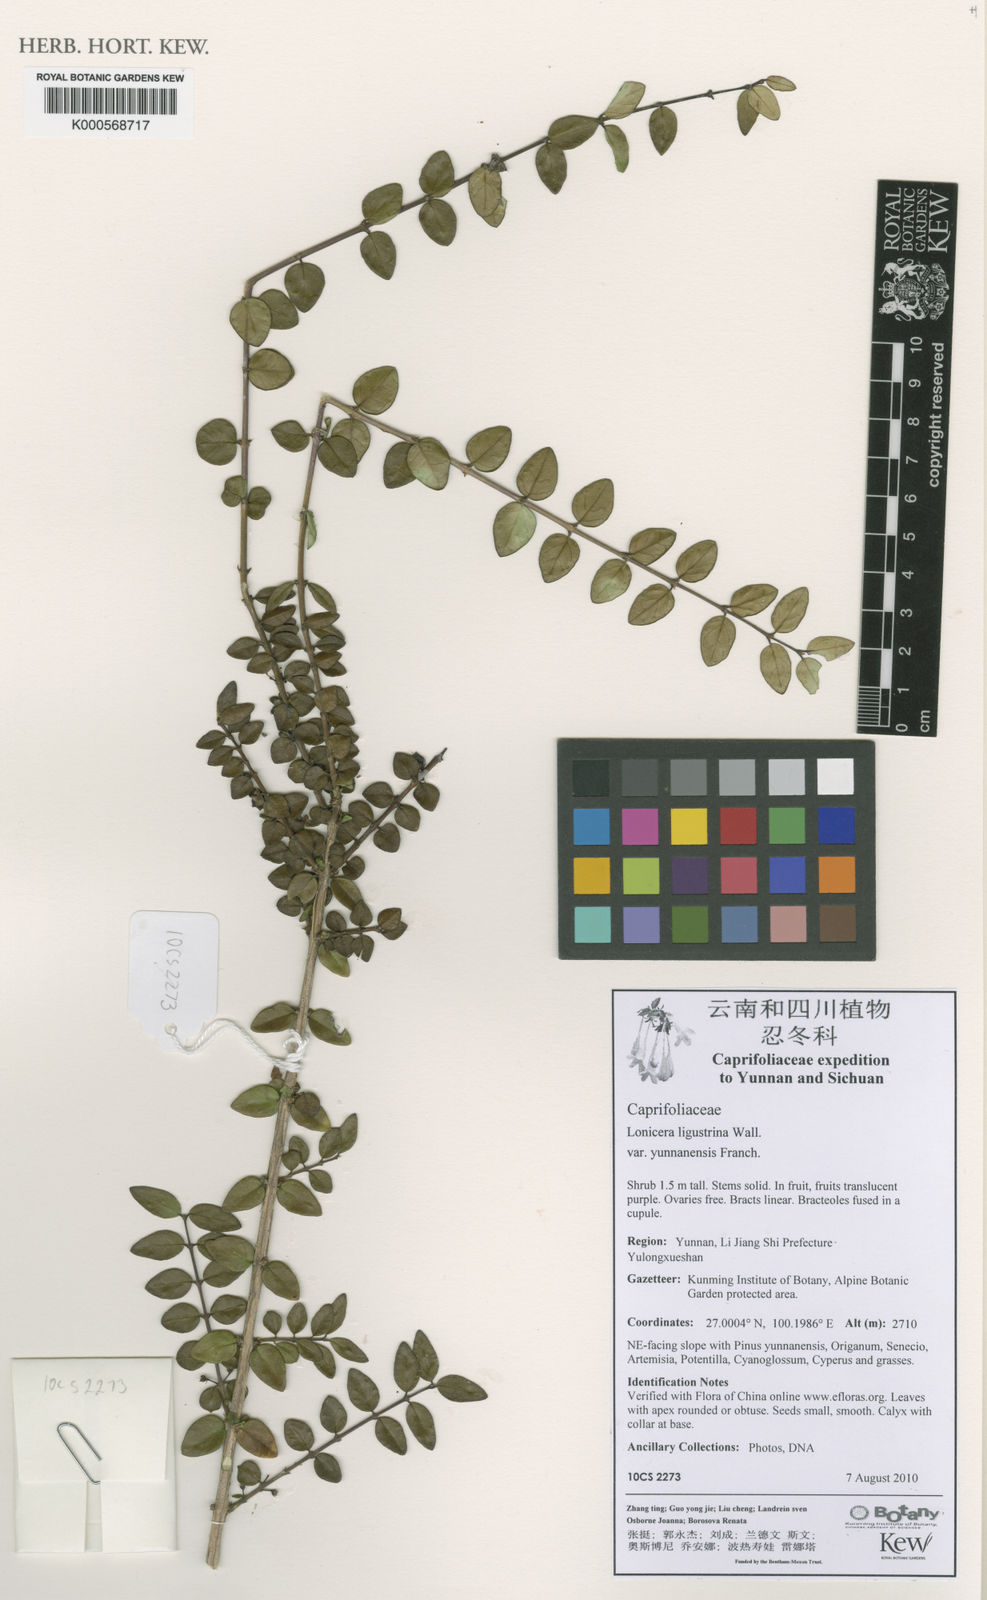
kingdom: Plantae
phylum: Tracheophyta
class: Magnoliopsida
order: Dipsacales
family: Caprifoliaceae
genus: Lonicera
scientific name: Lonicera ligustrina
